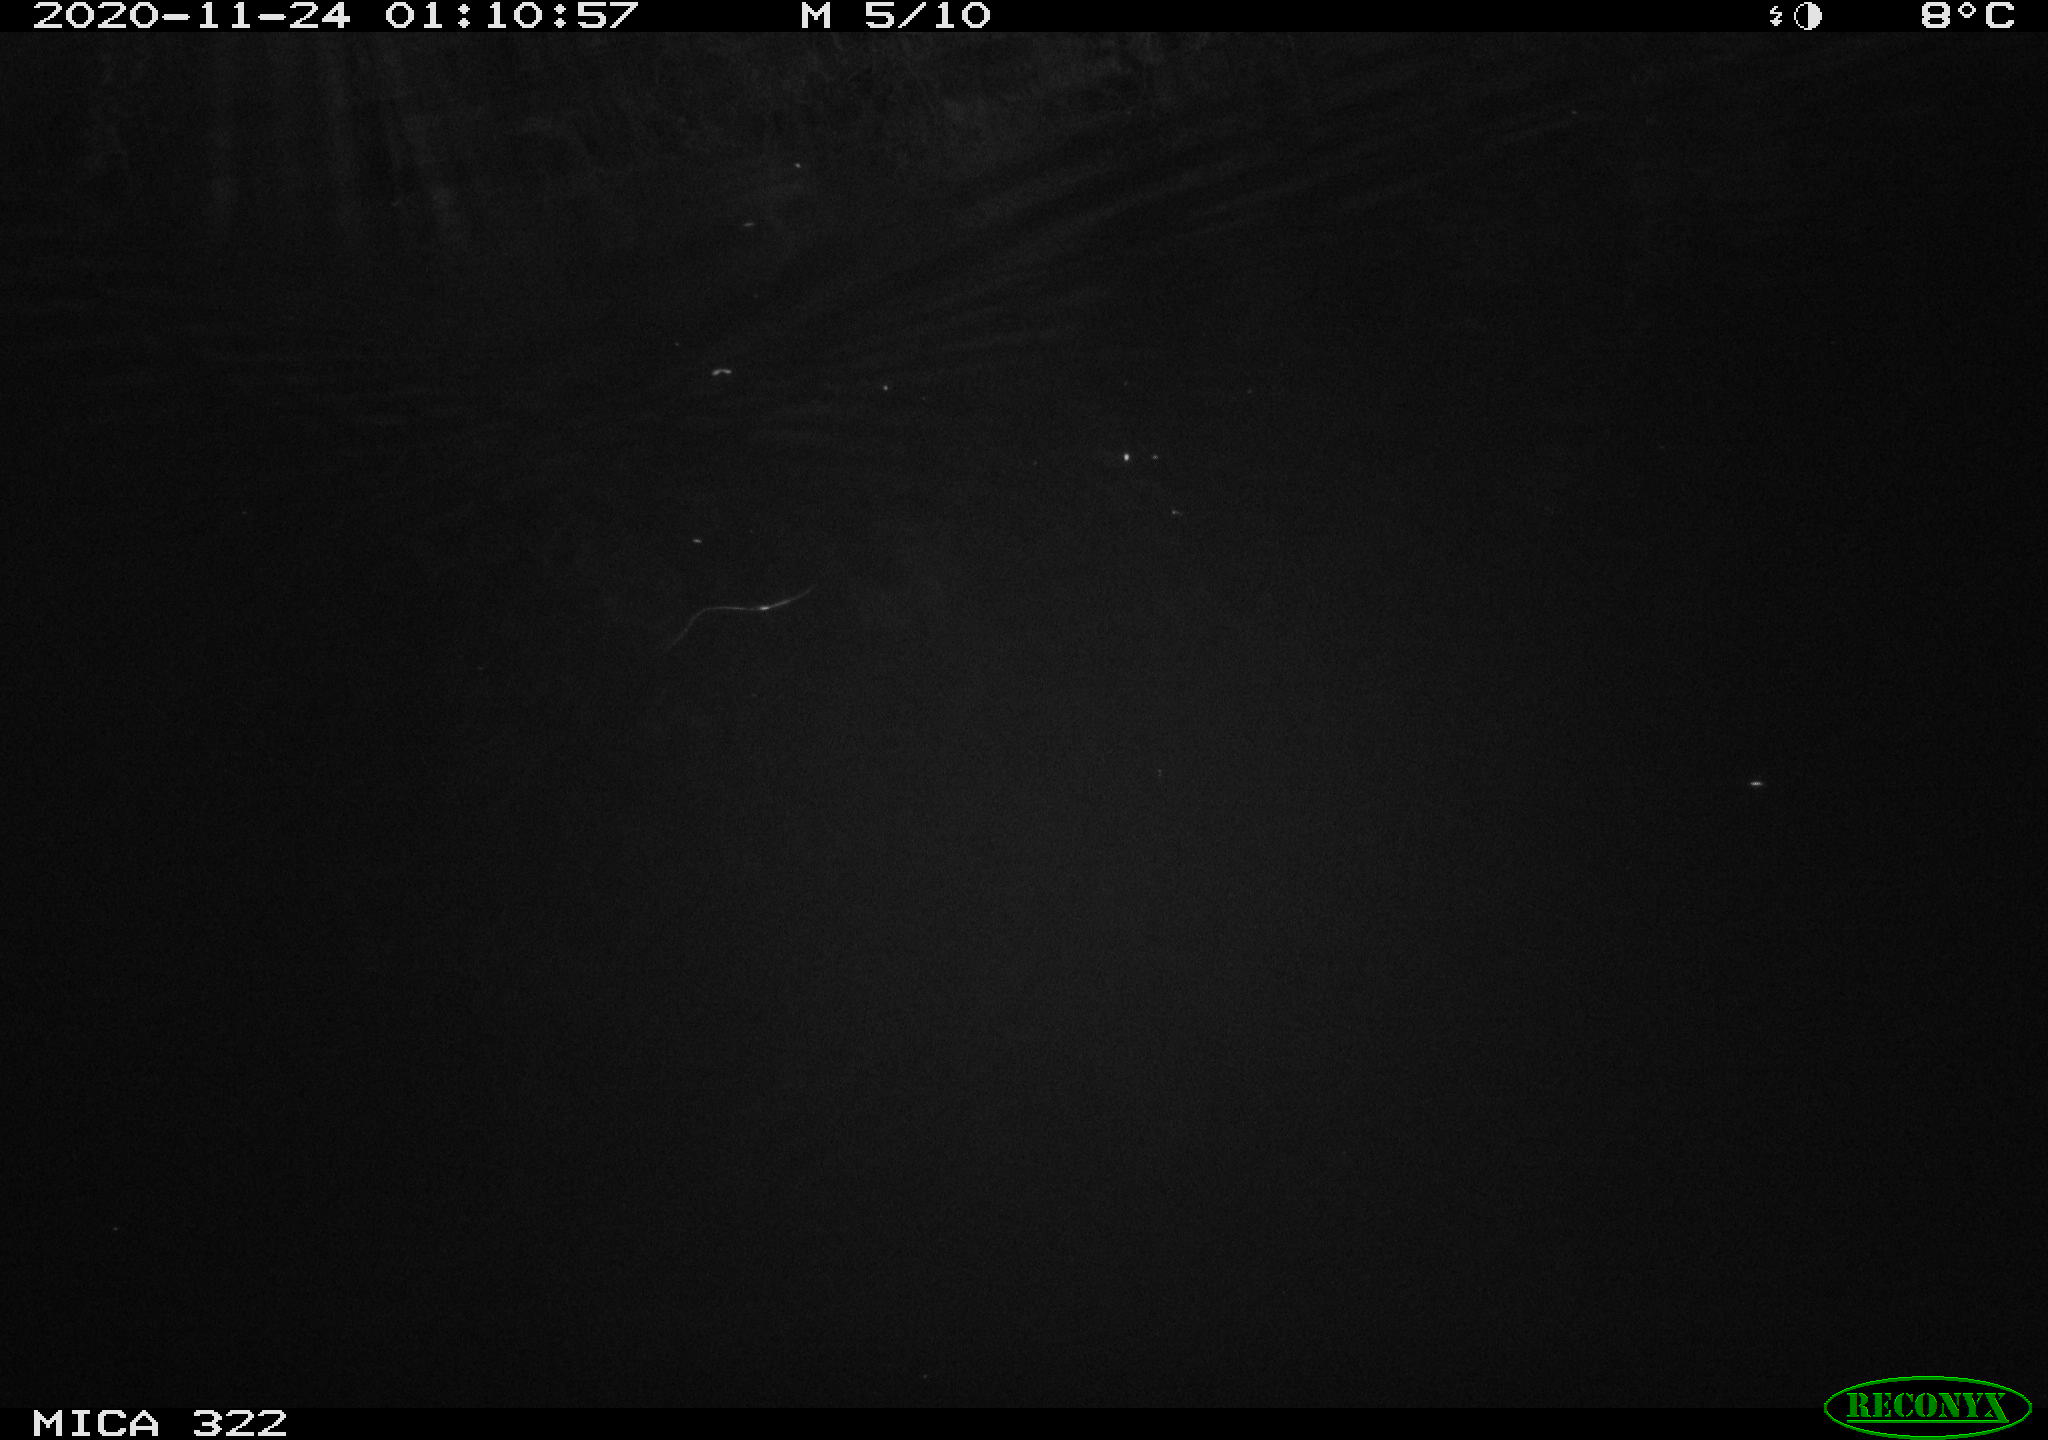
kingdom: Animalia
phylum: Chordata
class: Mammalia
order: Rodentia
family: Muridae
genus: Rattus
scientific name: Rattus norvegicus
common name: Brown rat
